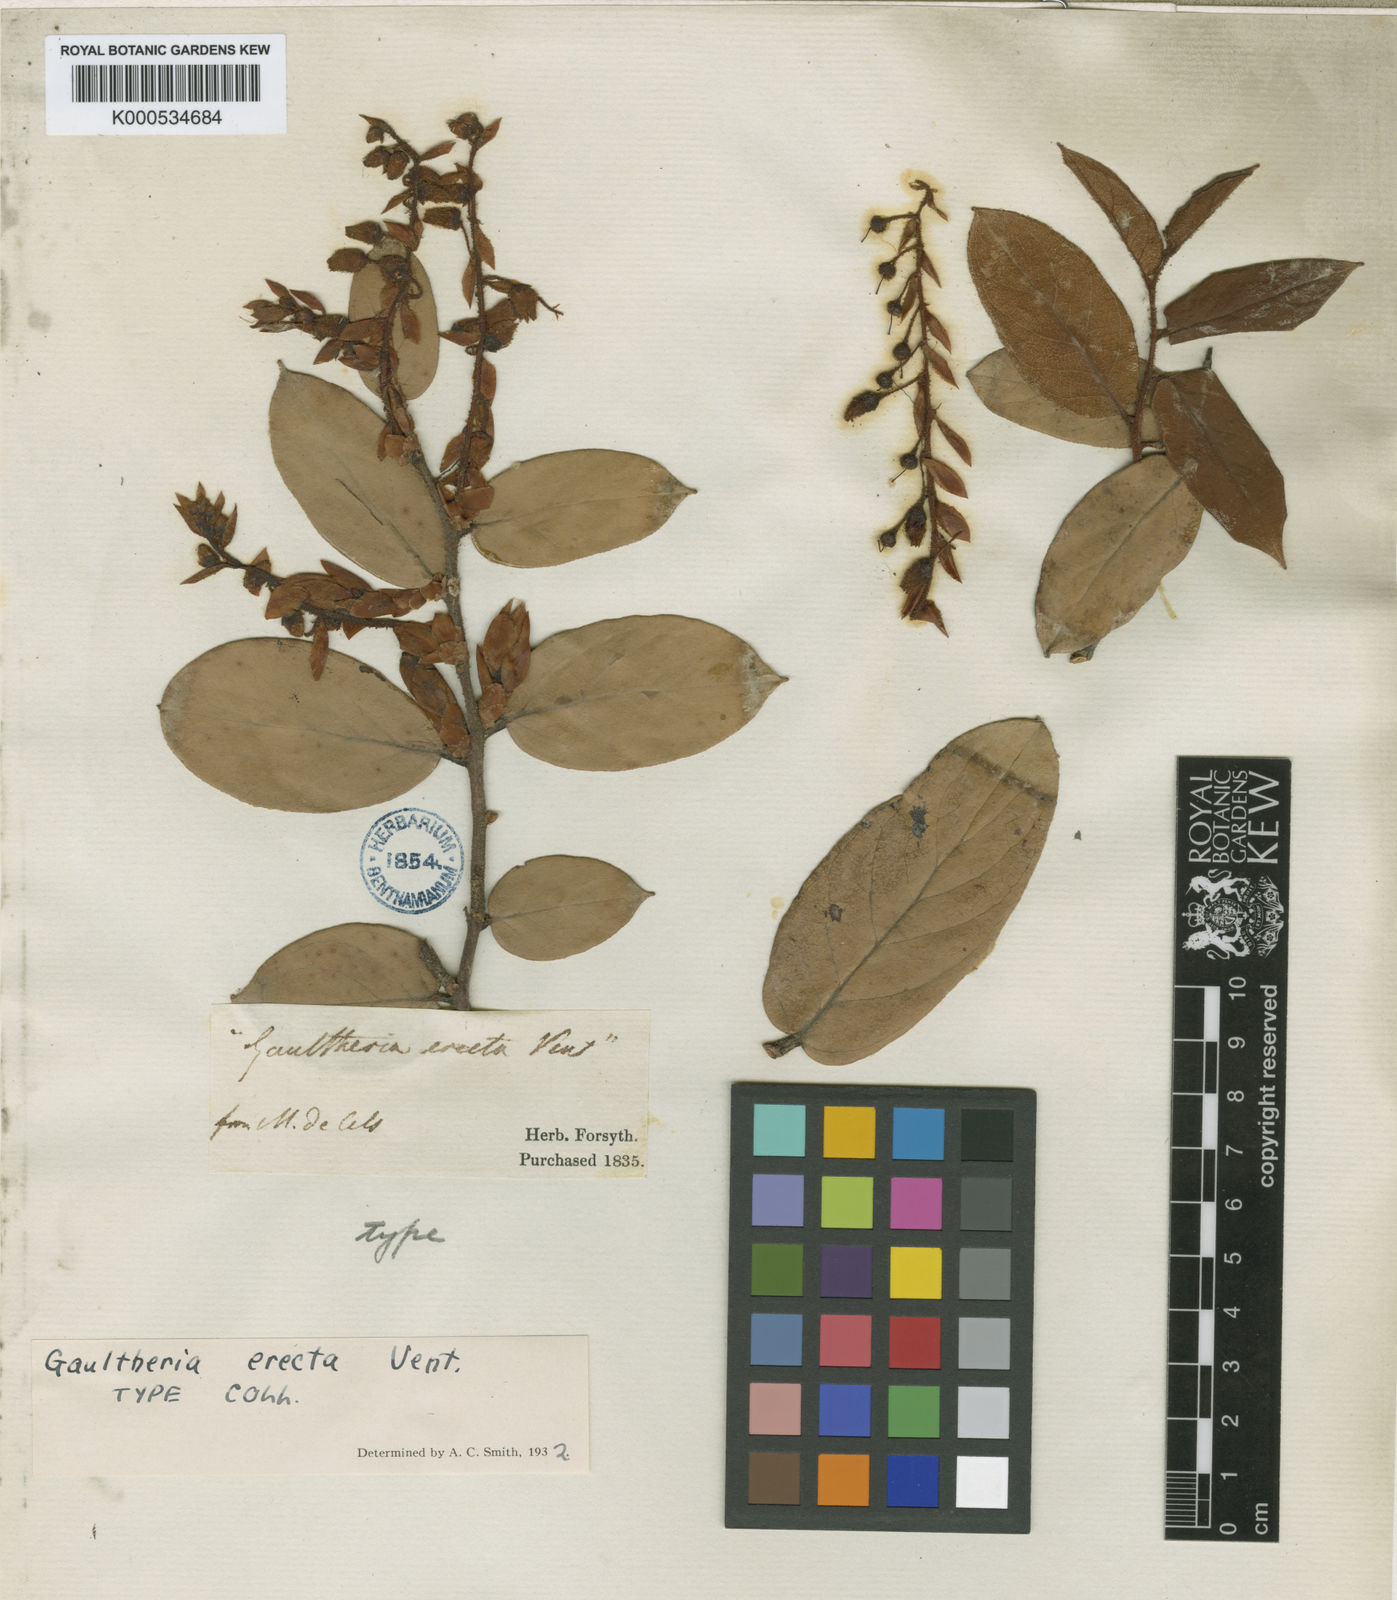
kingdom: Plantae
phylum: Tracheophyta
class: Magnoliopsida
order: Ericales
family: Ericaceae
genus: Gaultheria
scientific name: Gaultheria erecta
